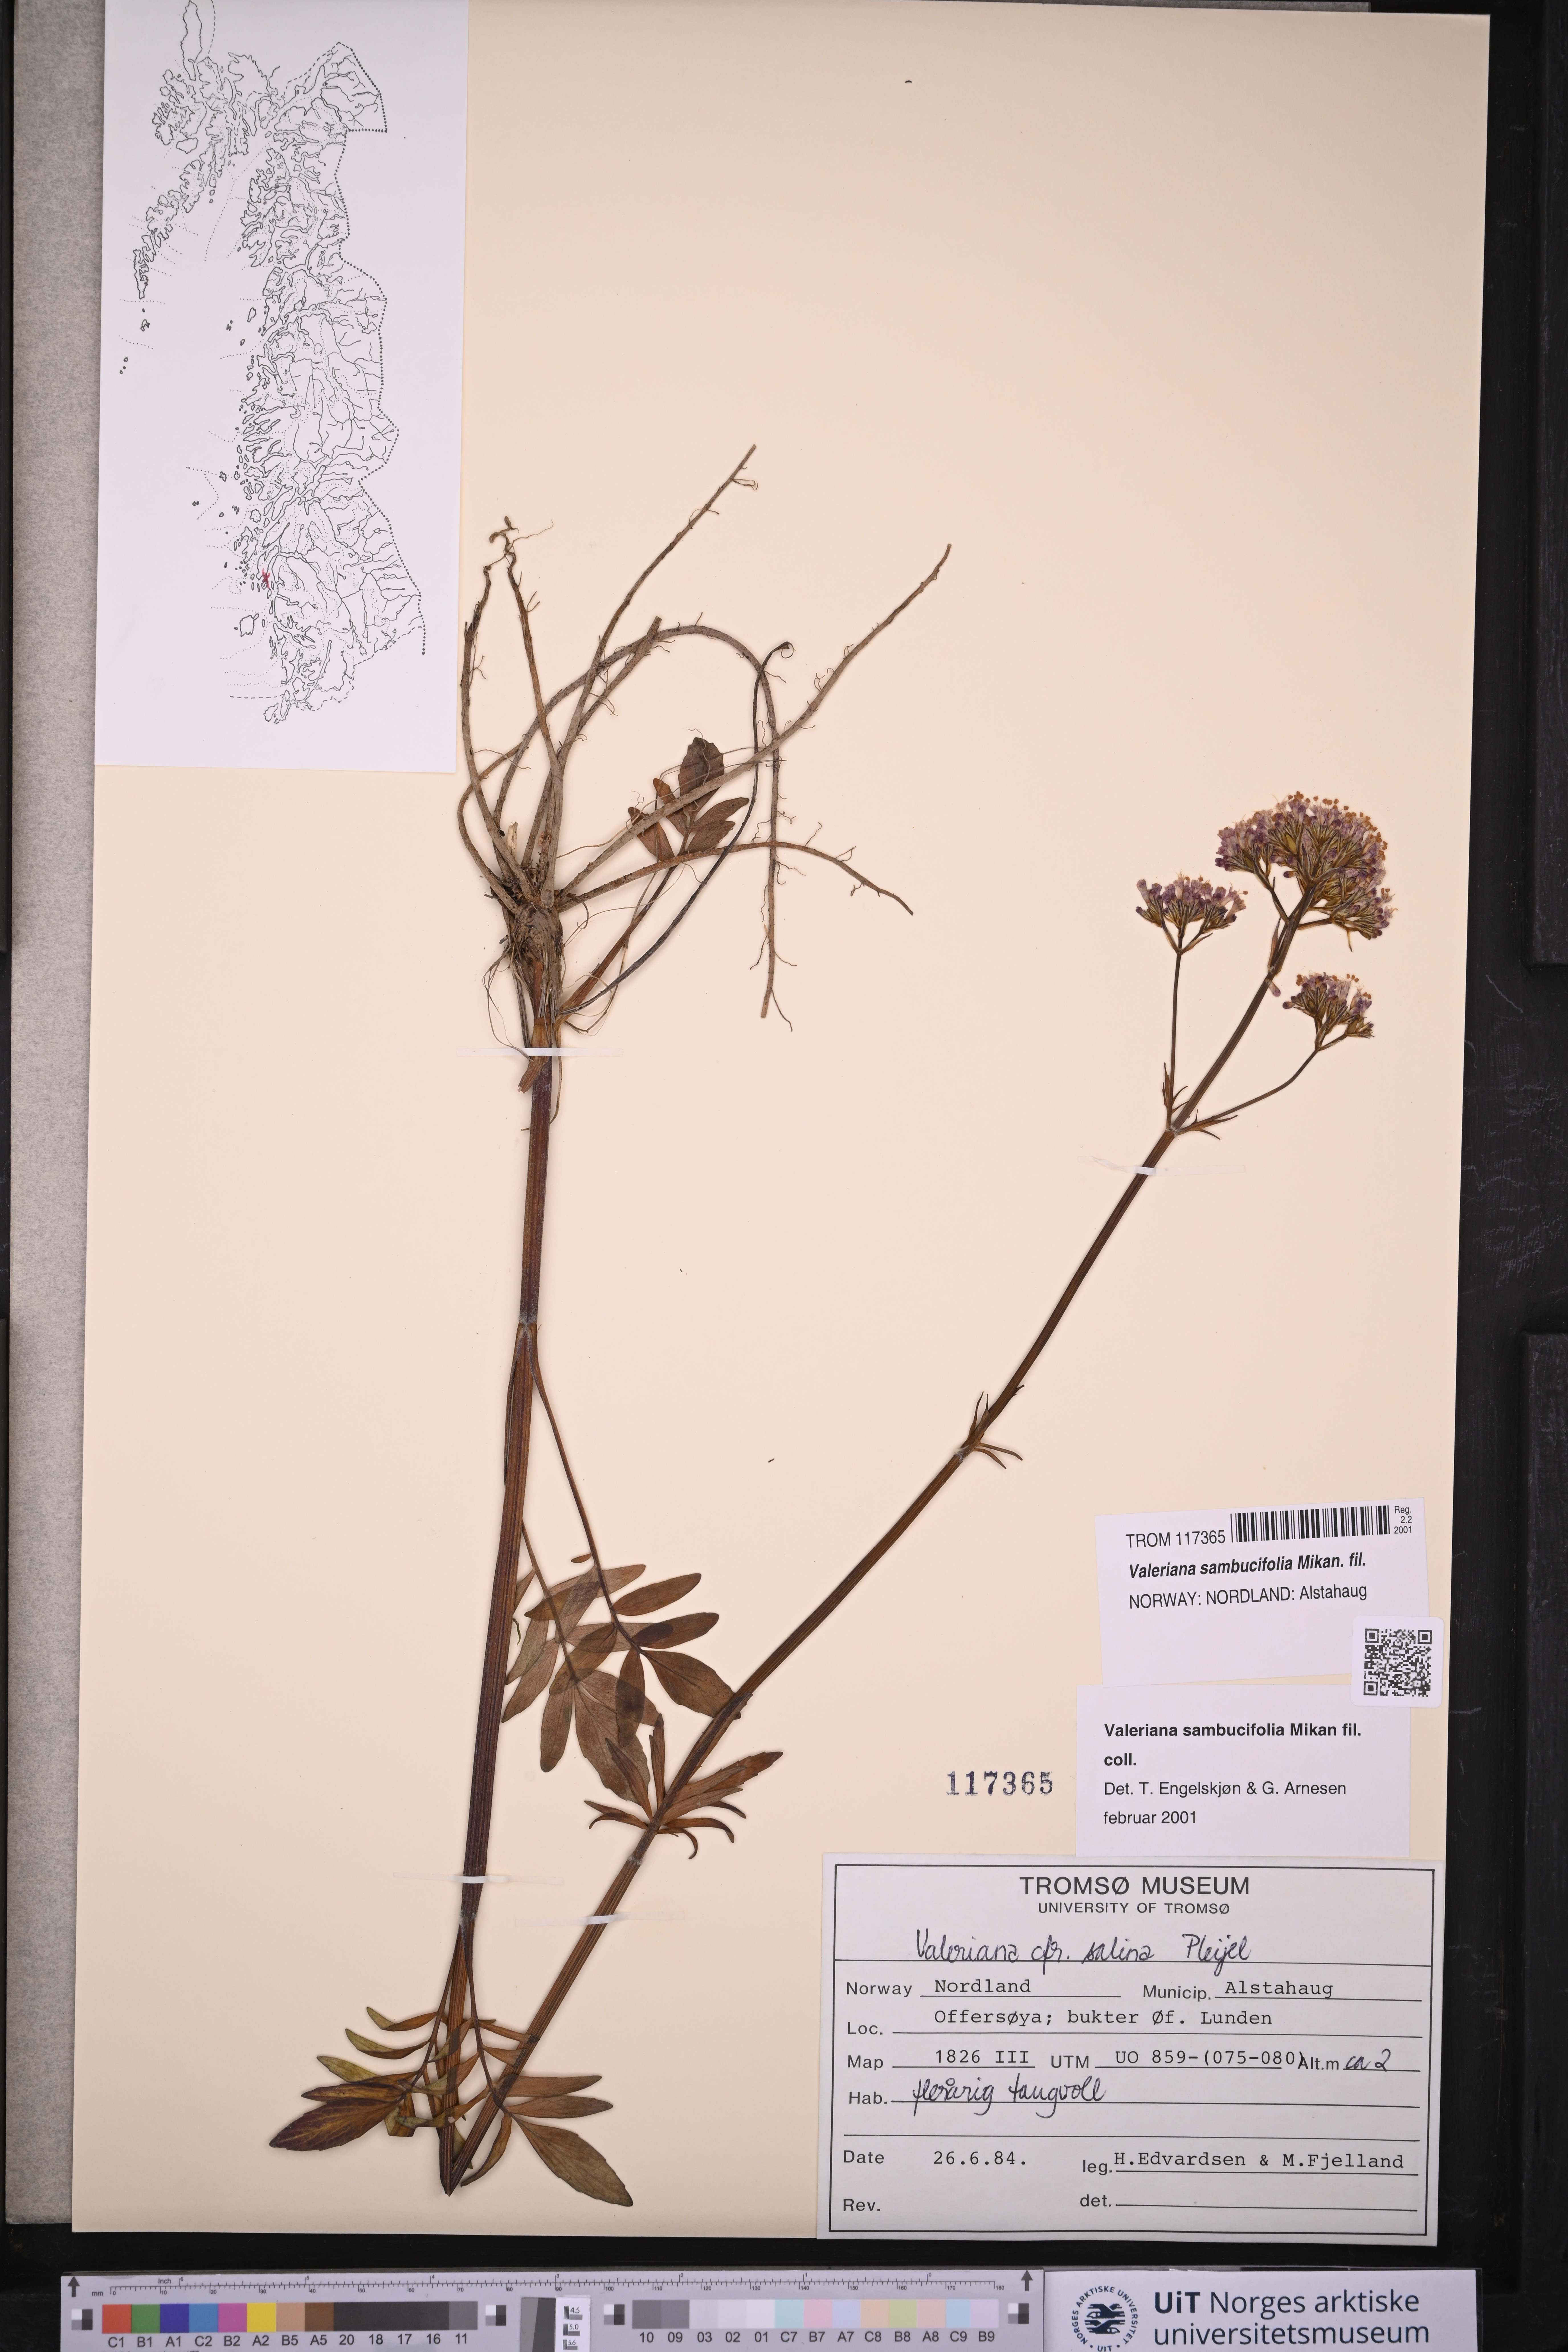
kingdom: Plantae
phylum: Tracheophyta
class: Magnoliopsida
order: Dipsacales
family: Caprifoliaceae
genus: Valeriana
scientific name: Valeriana excelsa
